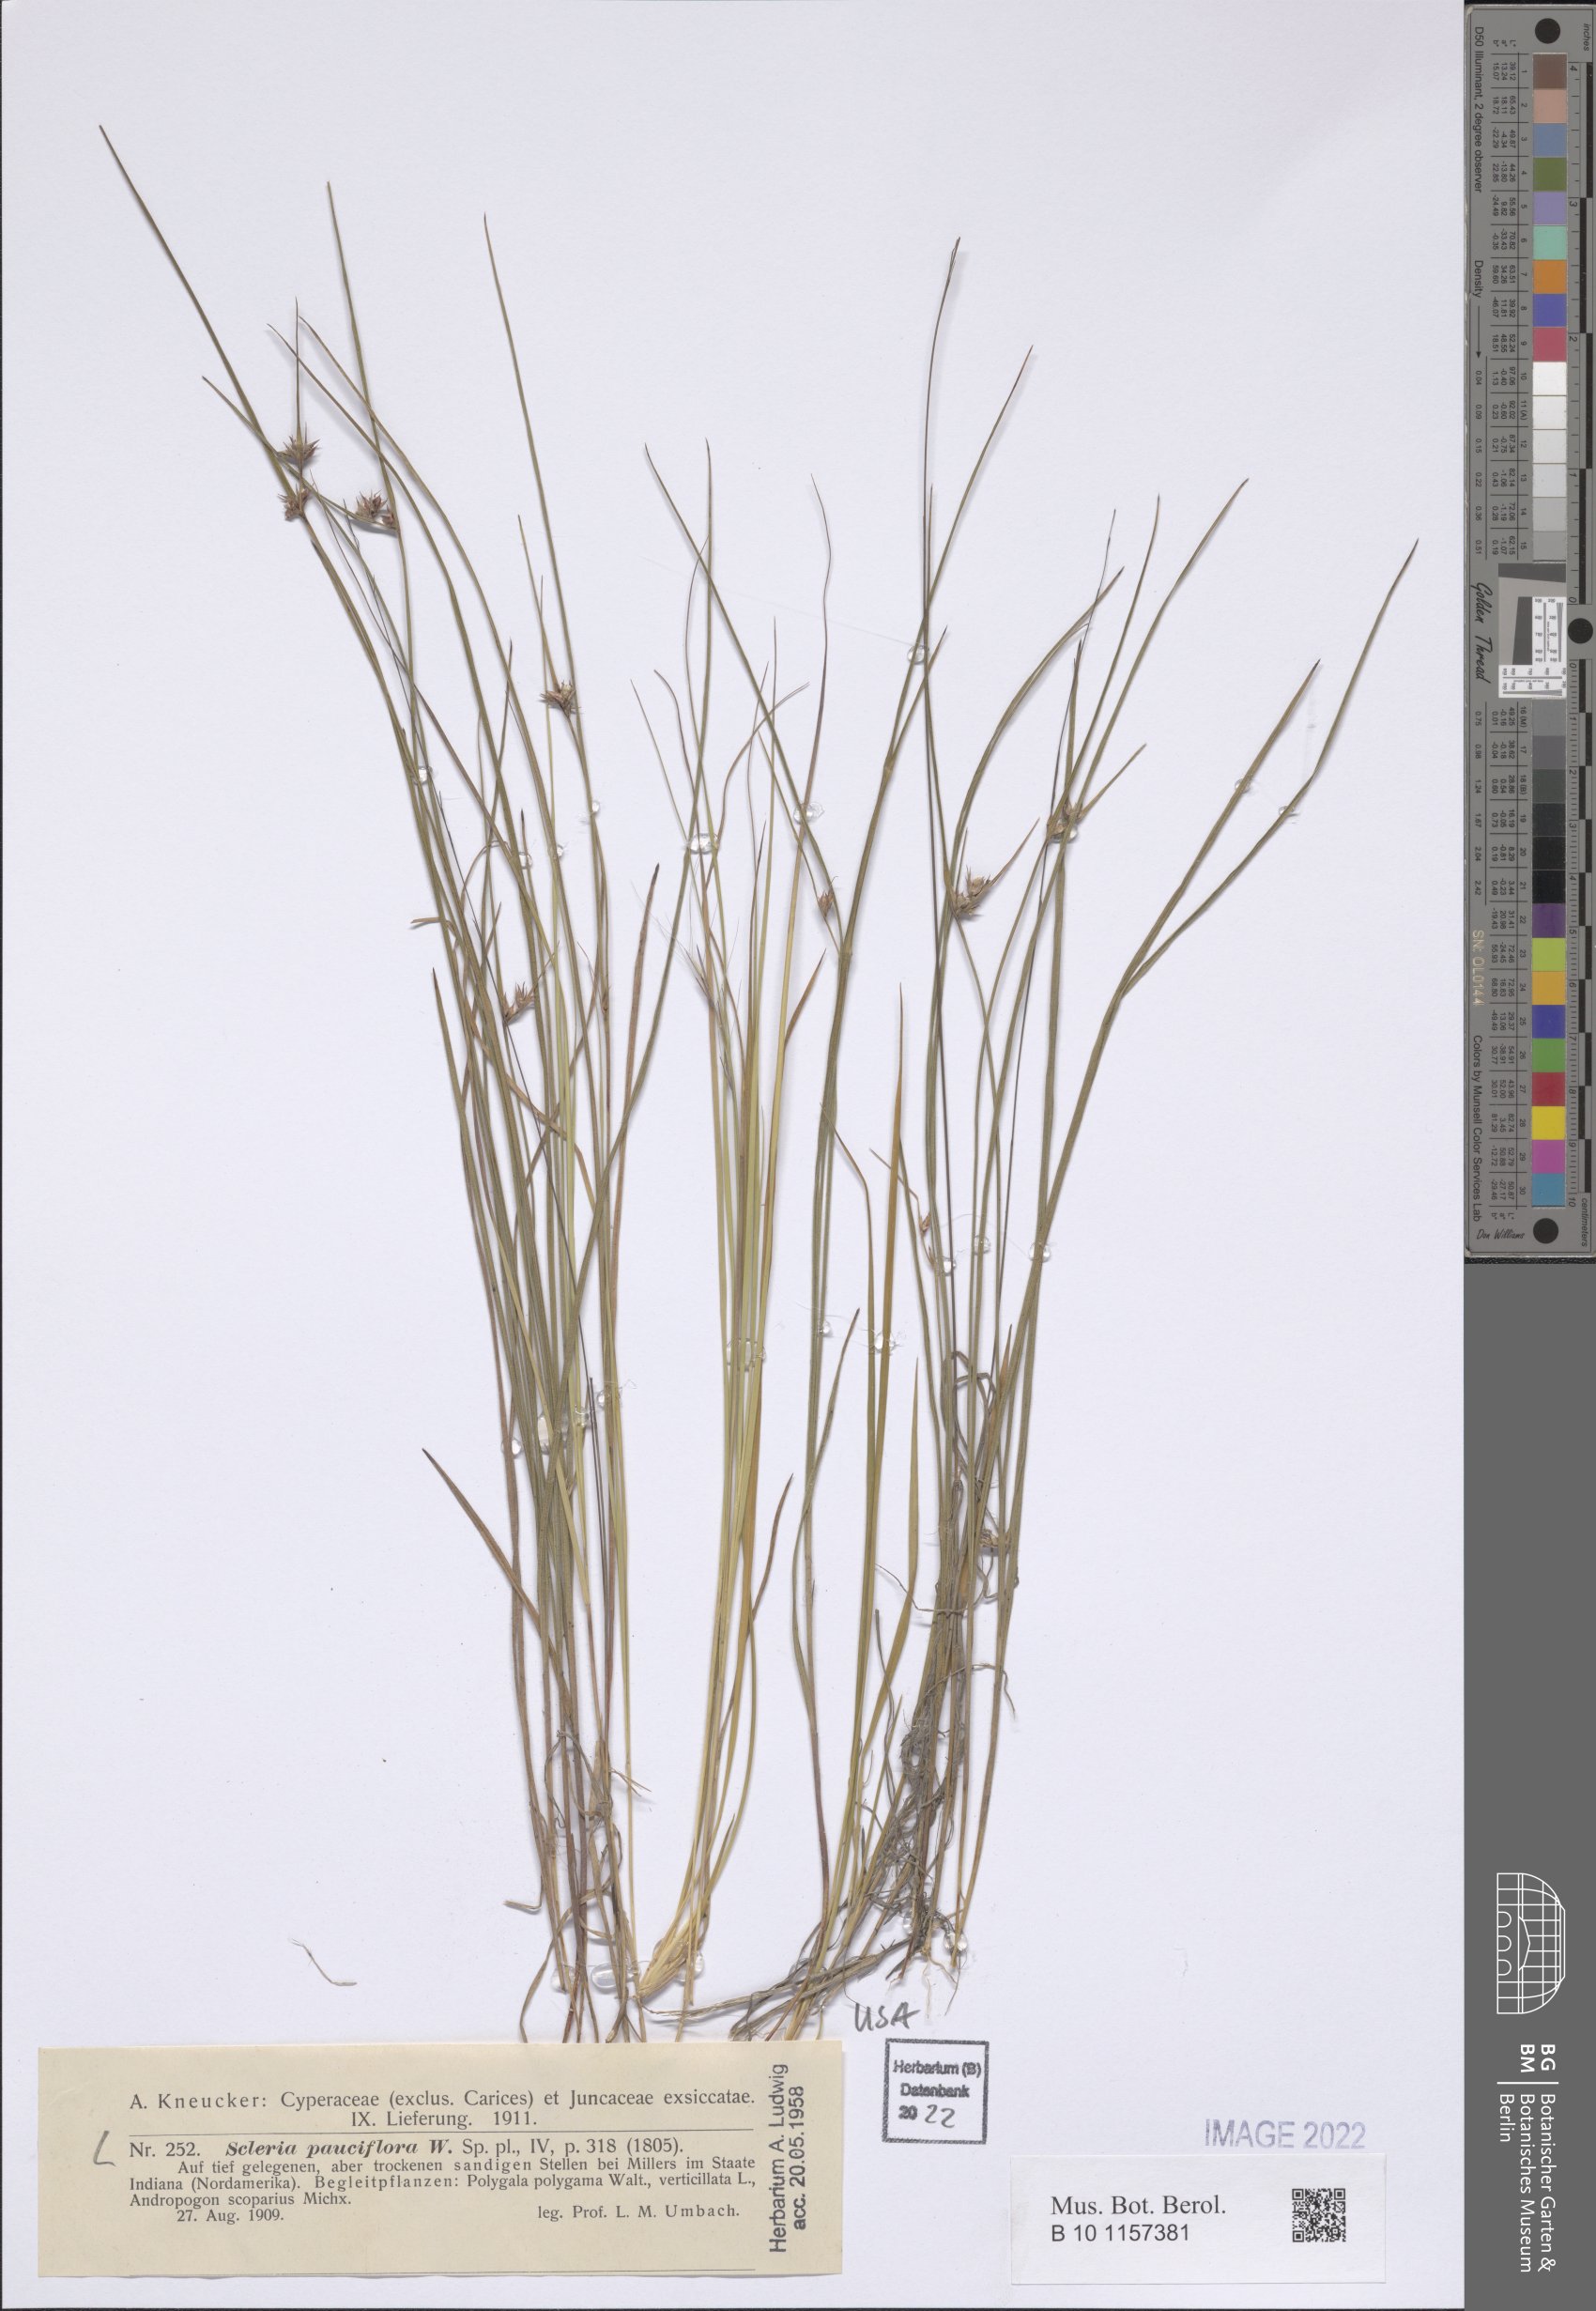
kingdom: Plantae
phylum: Tracheophyta
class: Liliopsida
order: Poales
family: Cyperaceae
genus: Scleria
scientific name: Scleria pauciflora
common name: Few-flowered nutrush
